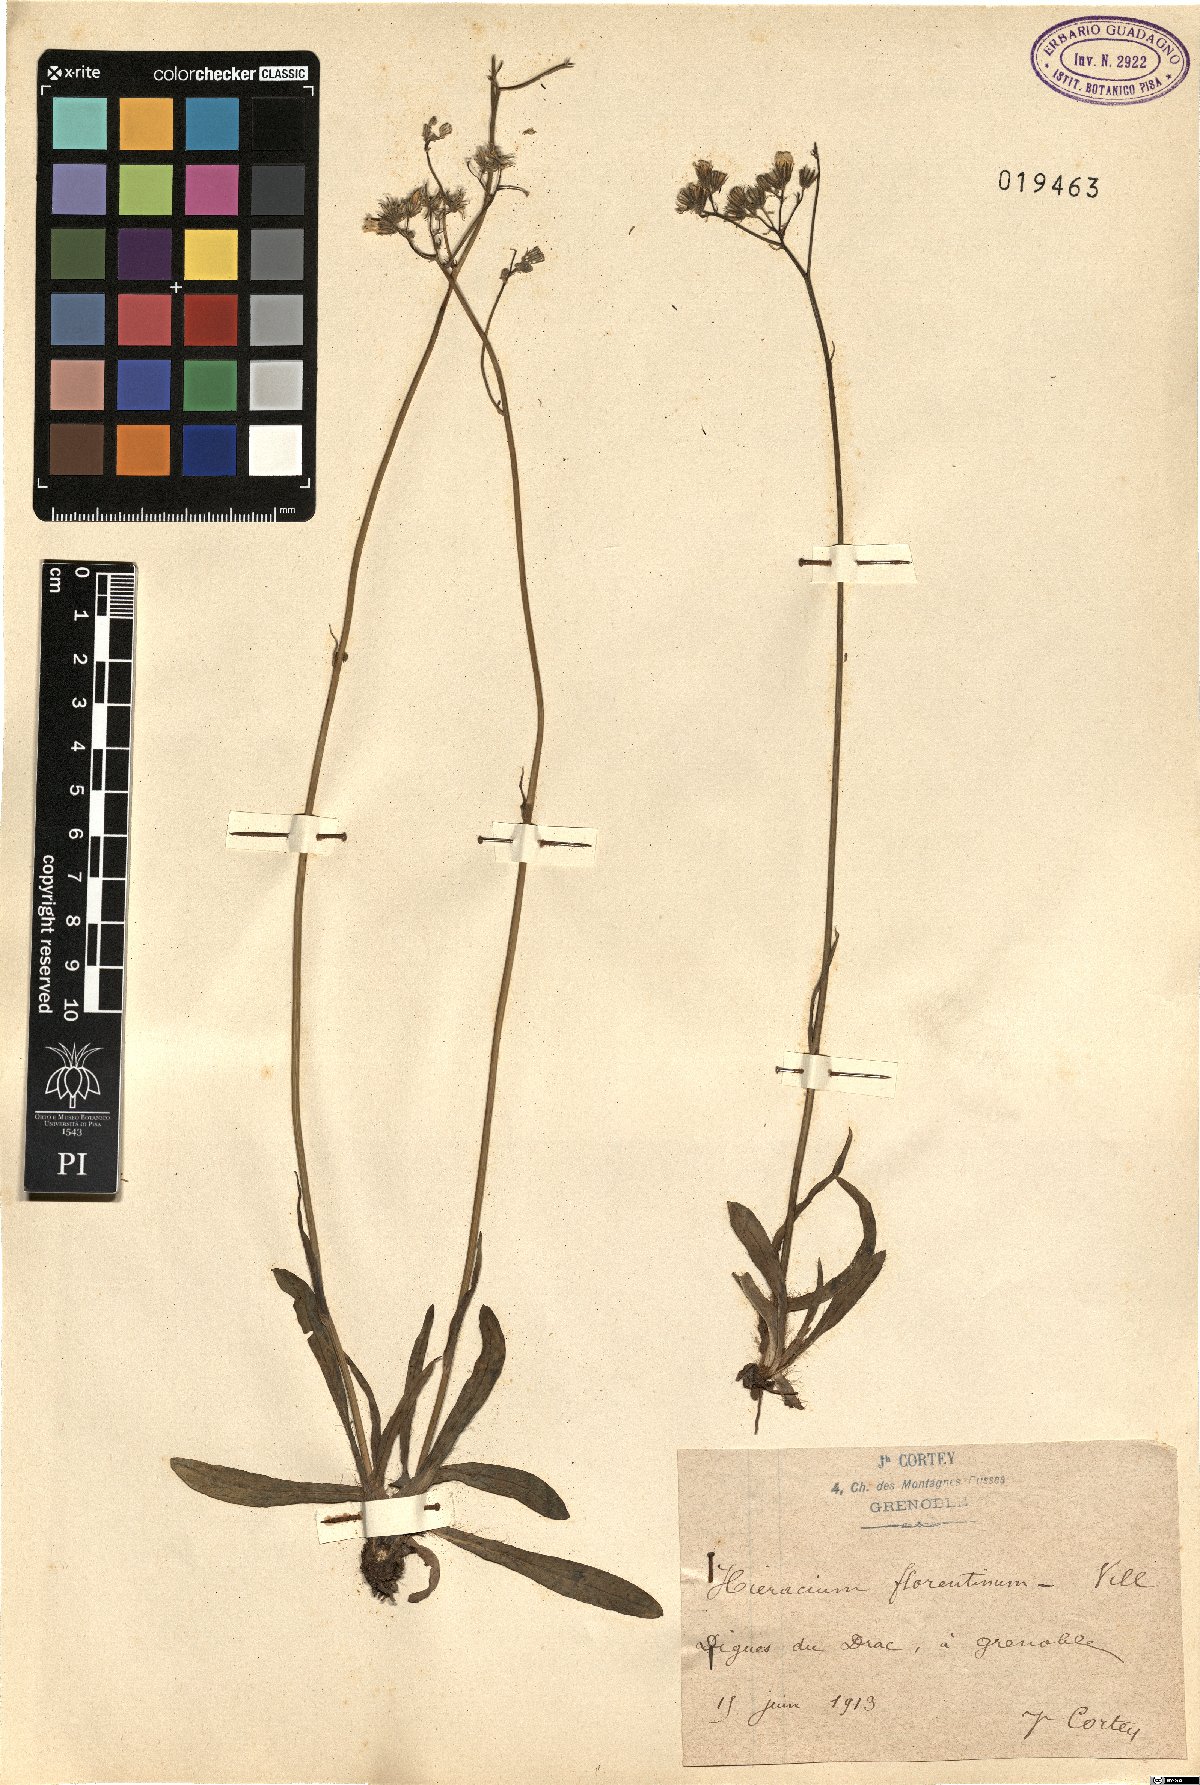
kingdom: Plantae
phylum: Tracheophyta
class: Magnoliopsida
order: Asterales
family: Asteraceae
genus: Pilosella
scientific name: Pilosella piloselloides
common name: Glaucous king-devil
